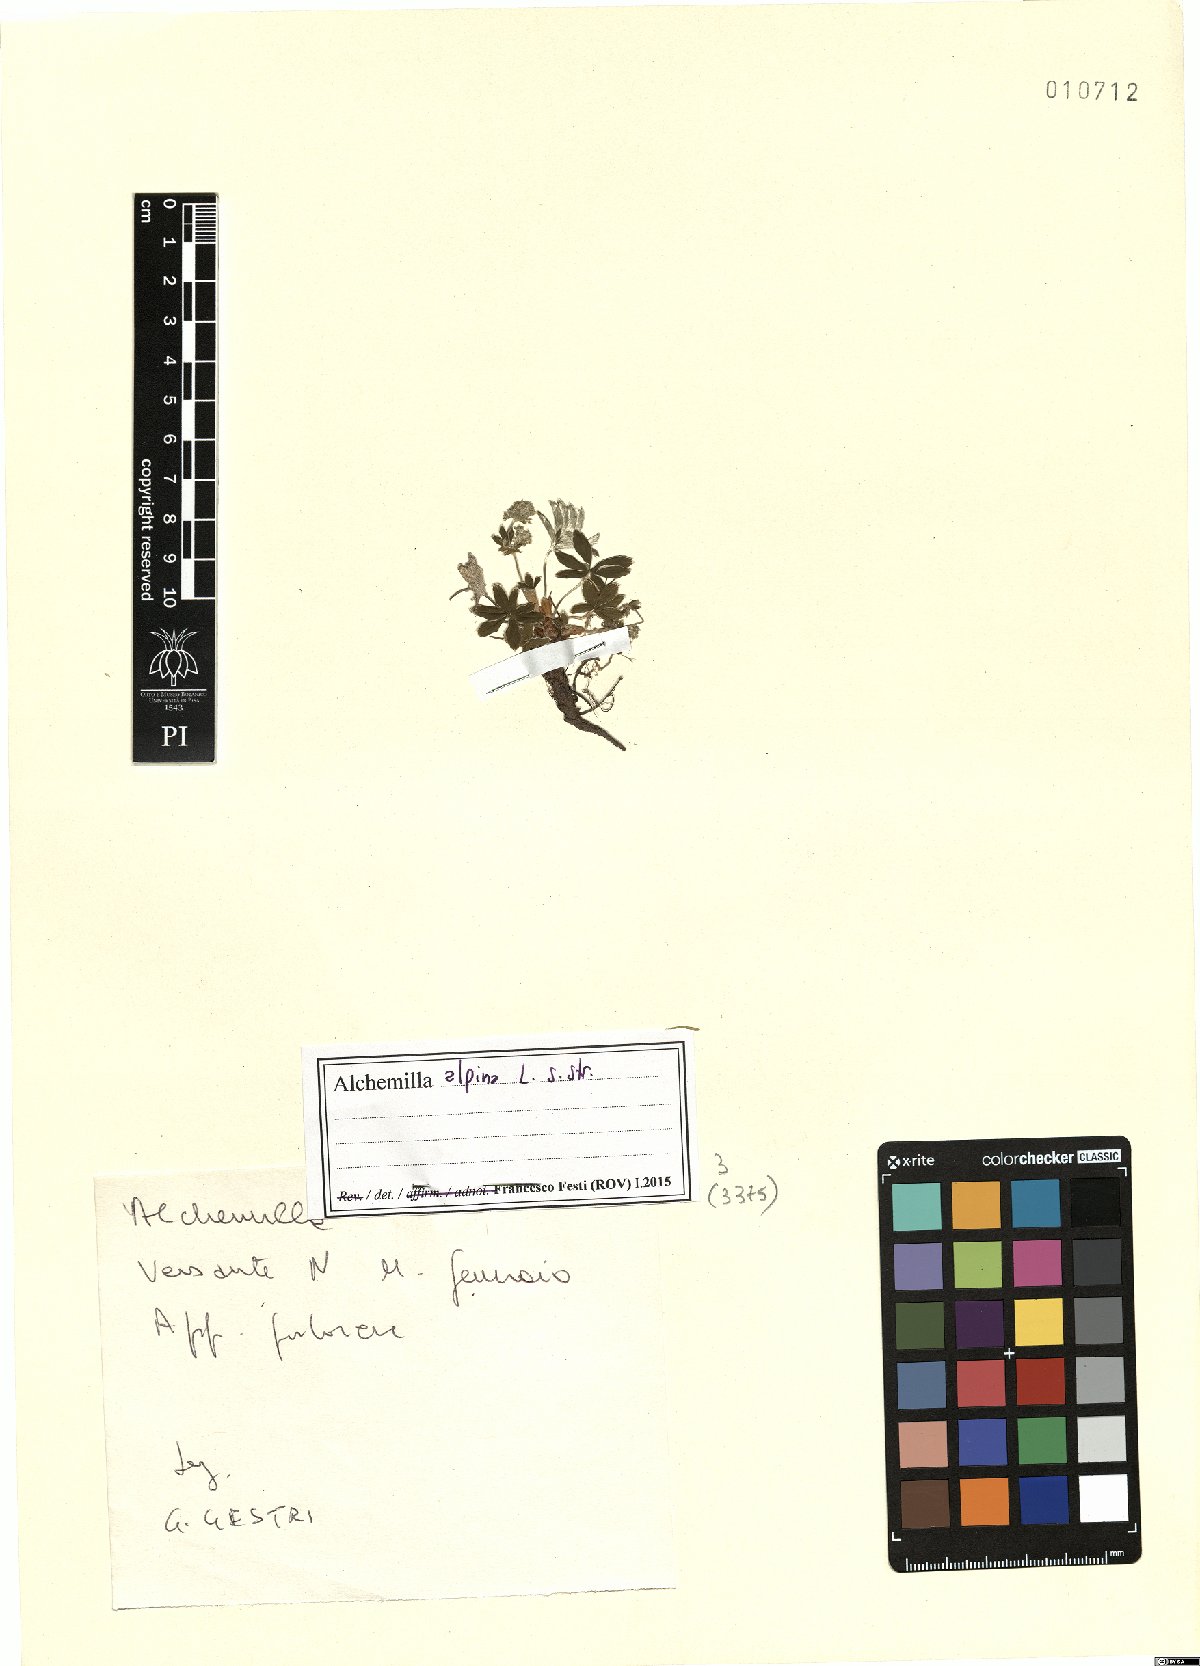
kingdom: Plantae
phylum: Tracheophyta
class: Magnoliopsida
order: Rosales
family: Rosaceae
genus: Alchemilla
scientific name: Alchemilla alpina
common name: Alpine lady's-mantle
